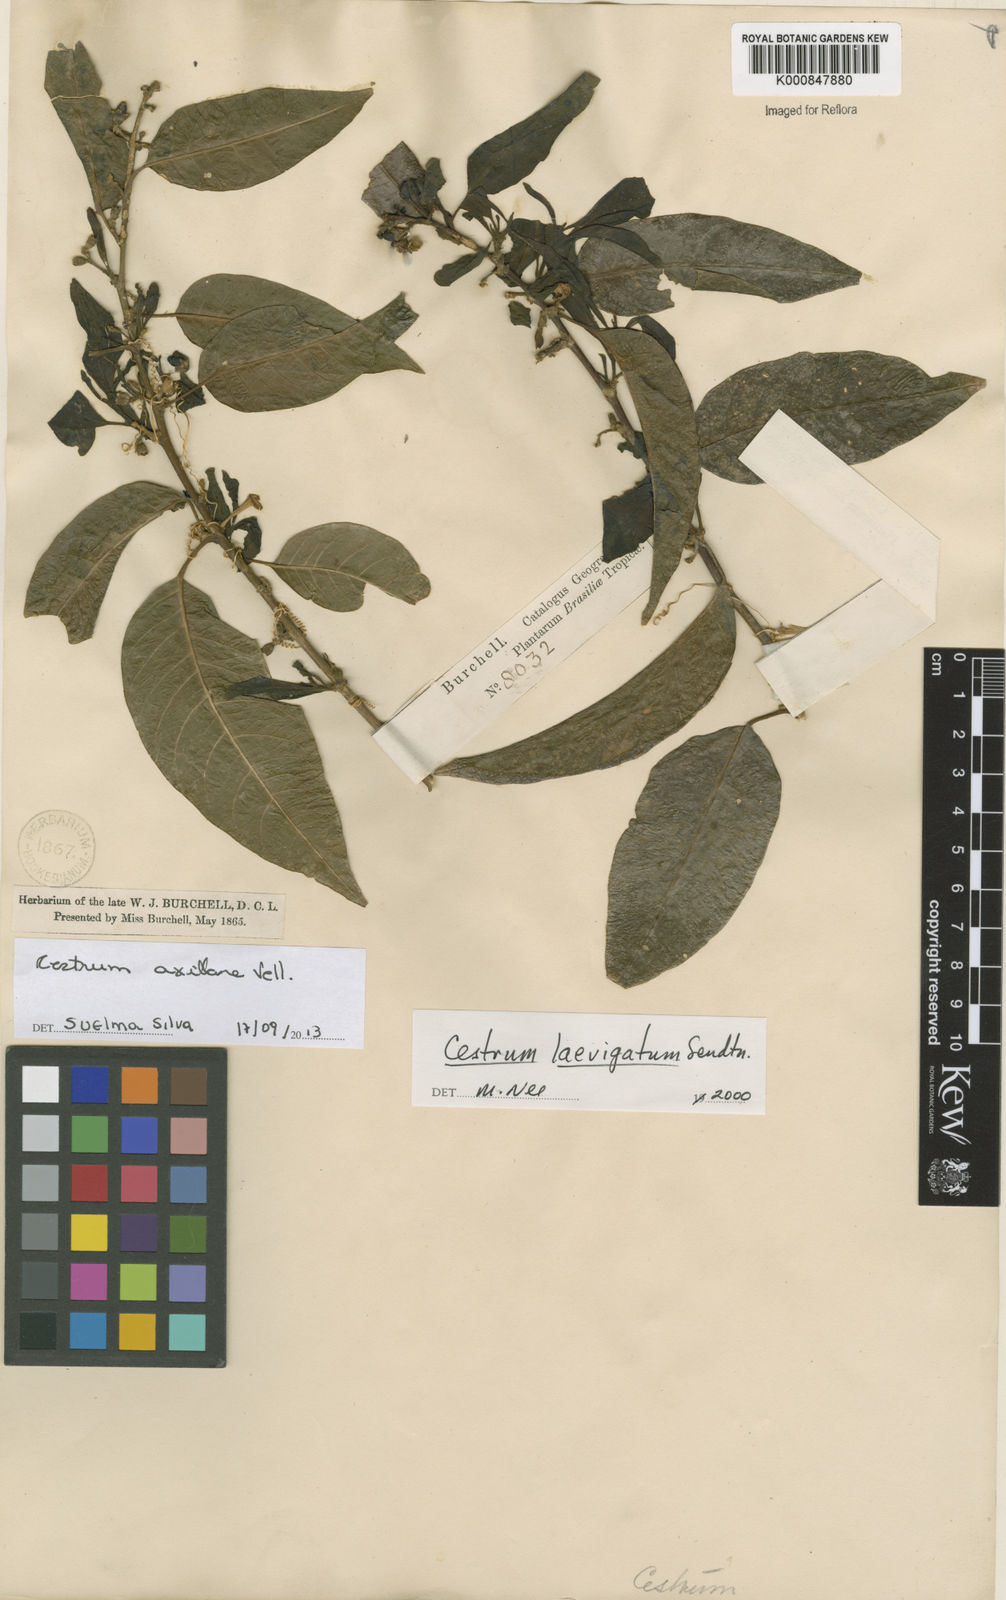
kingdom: Plantae
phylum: Tracheophyta
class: Magnoliopsida
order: Solanales
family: Solanaceae
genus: Cestrum
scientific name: Cestrum laevigatum
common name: Inkberry
